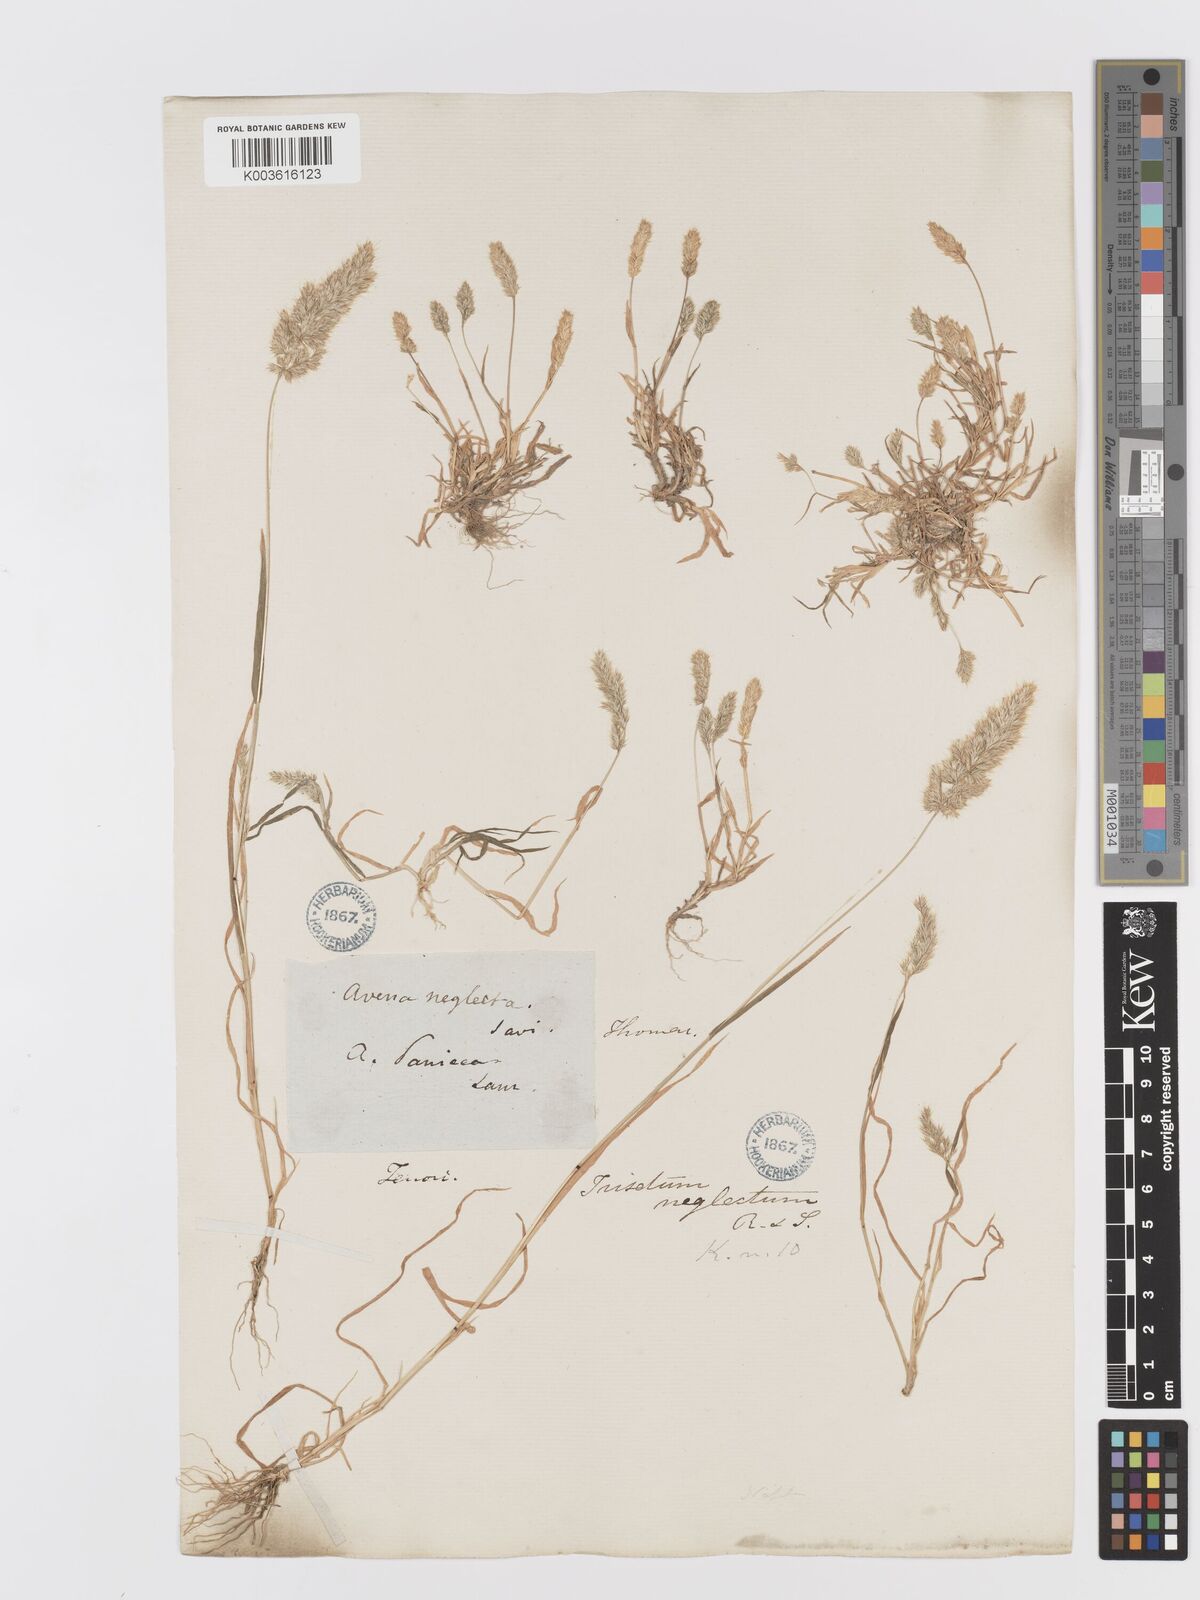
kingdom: Plantae
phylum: Tracheophyta
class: Liliopsida
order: Poales
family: Poaceae
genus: Trisetaria
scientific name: Trisetaria panicea
